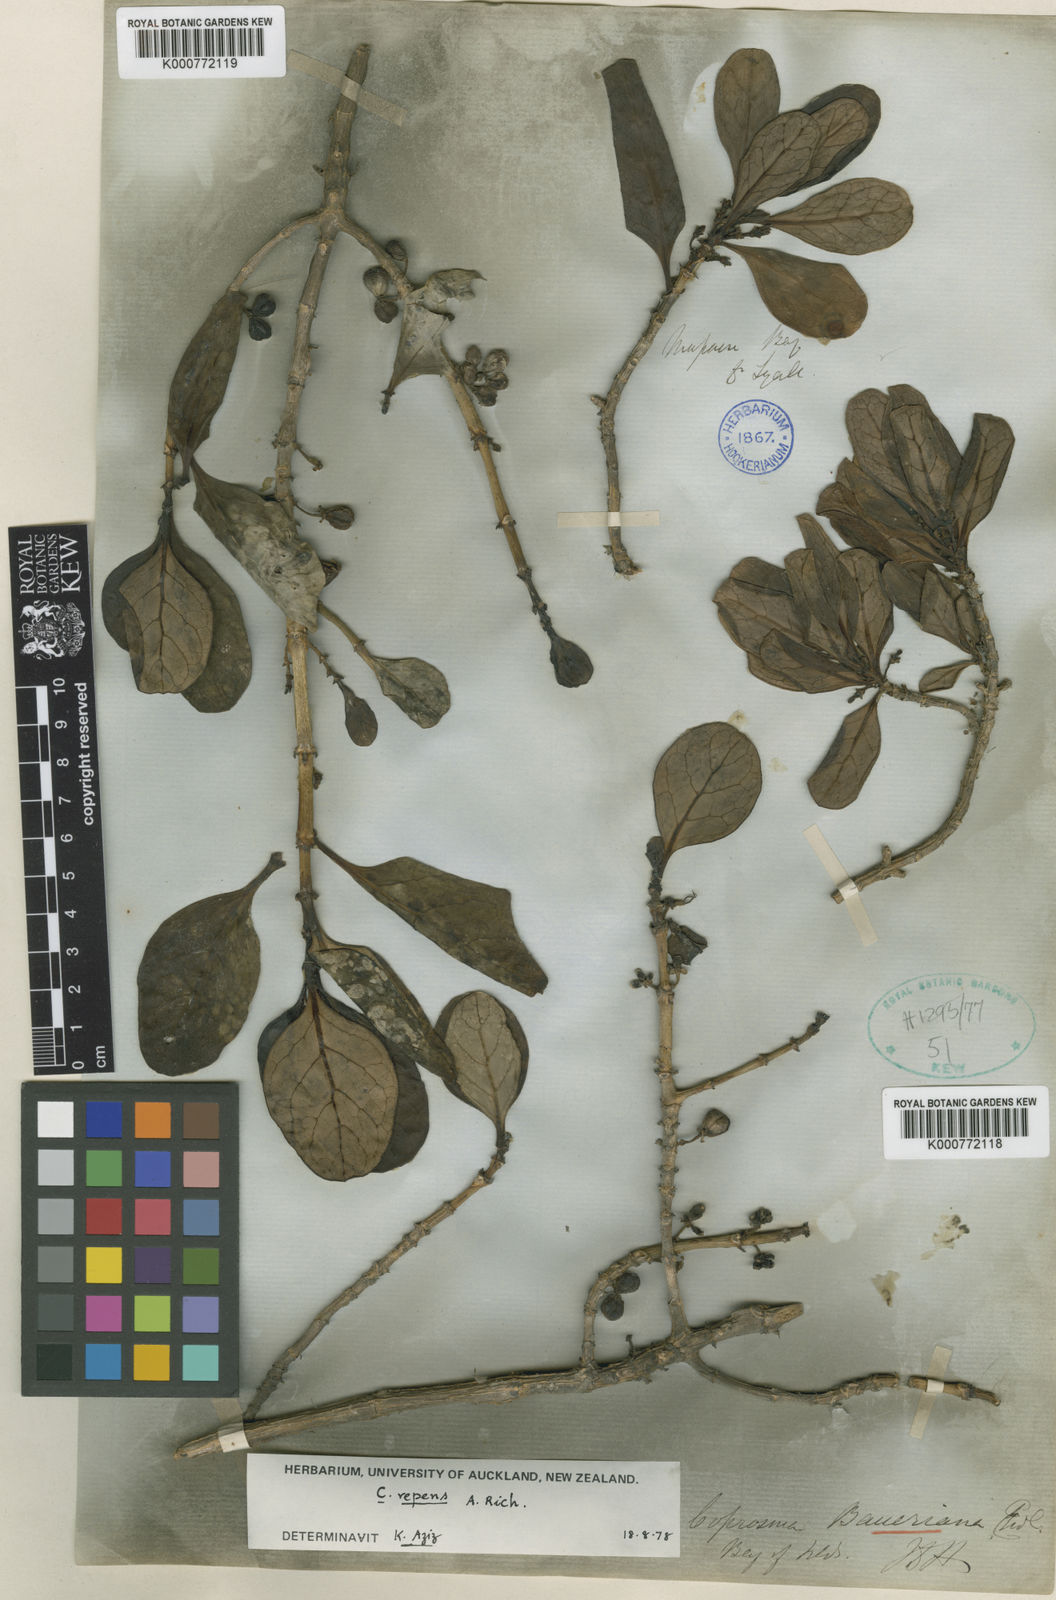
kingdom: Plantae
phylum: Tracheophyta
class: Magnoliopsida
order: Gentianales
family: Rubiaceae
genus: Coprosma
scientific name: Coprosma repens
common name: Tree bedstraw
